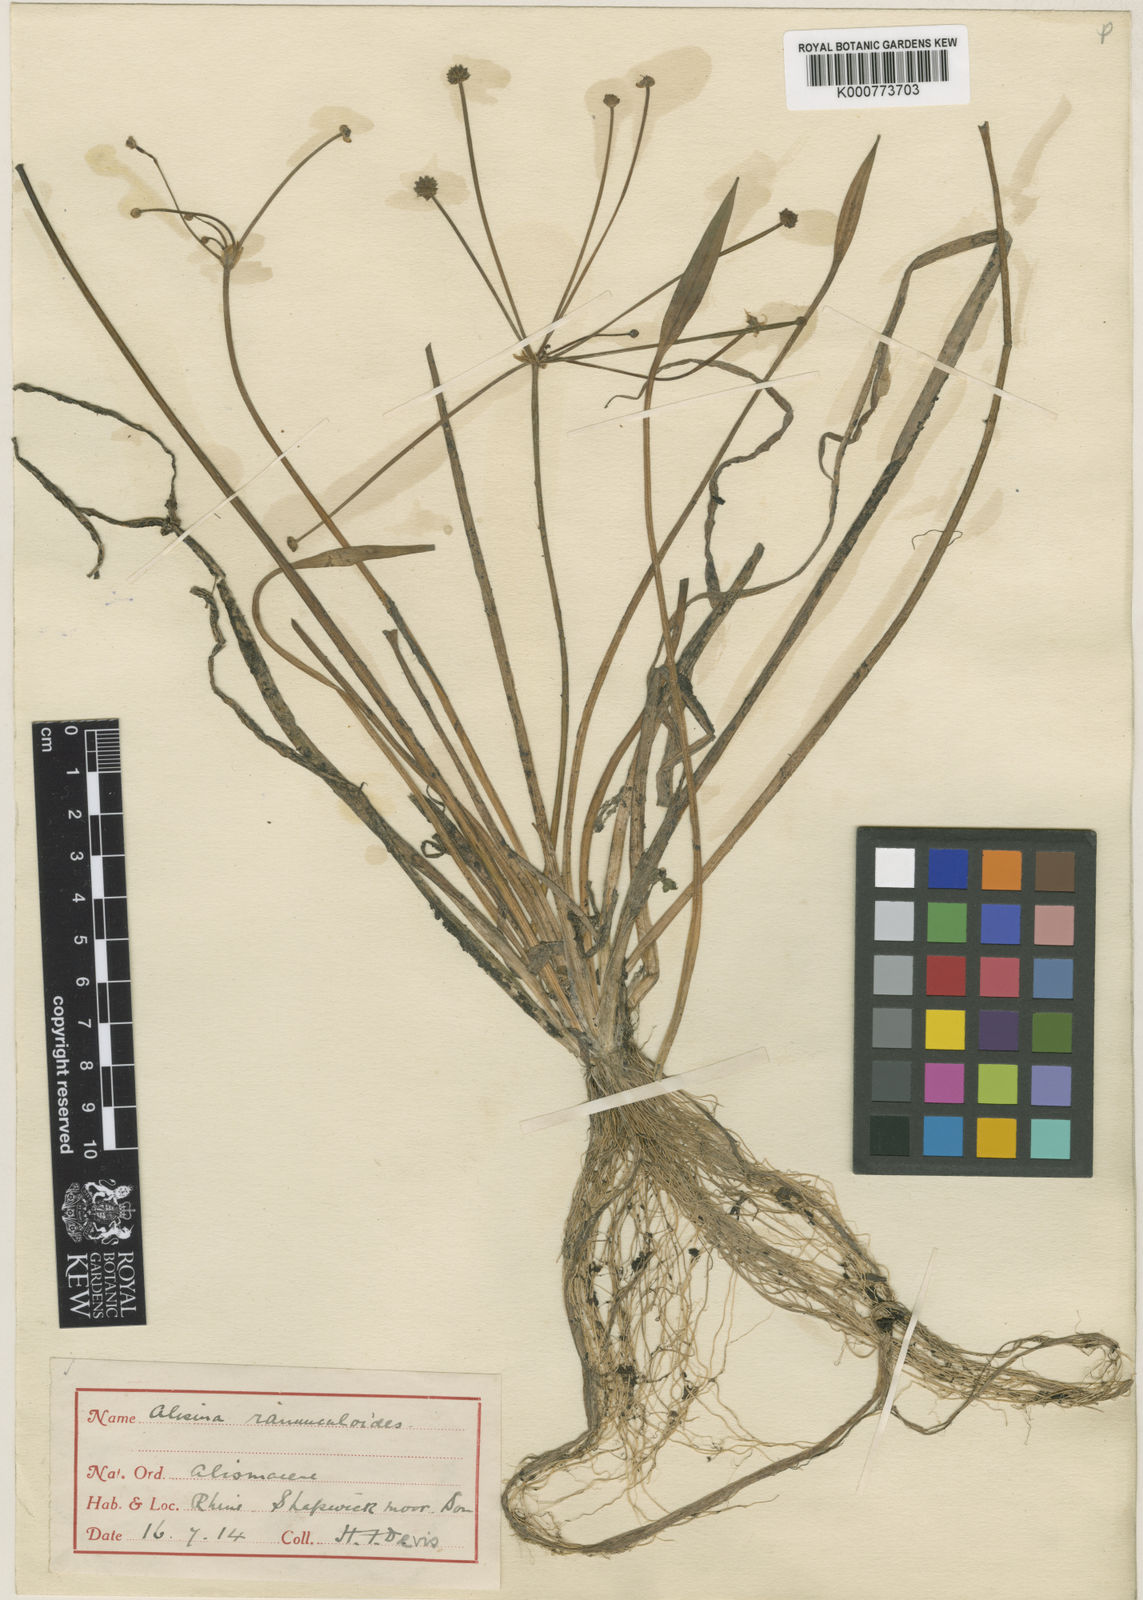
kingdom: Plantae
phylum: Tracheophyta
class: Liliopsida
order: Alismatales
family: Alismataceae
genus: Baldellia
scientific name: Baldellia ranunculoides
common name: Lesser water-plantain
